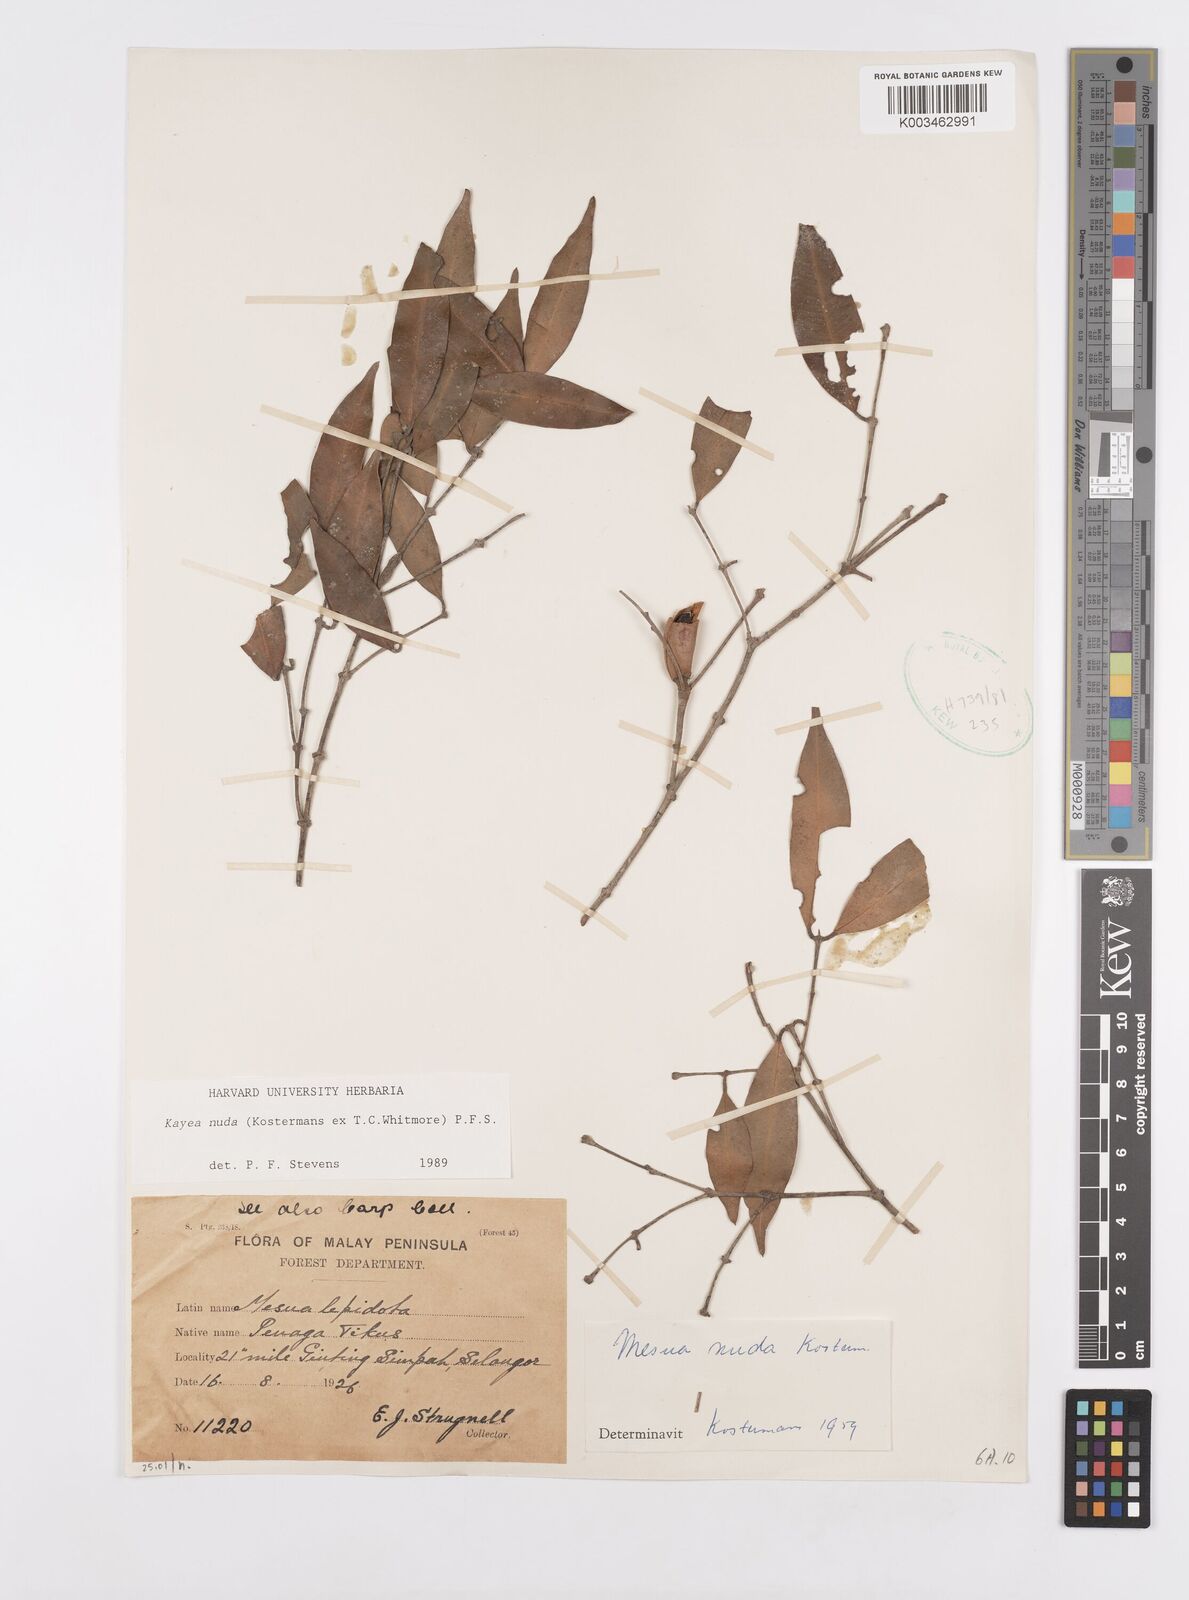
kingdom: Plantae
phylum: Tracheophyta
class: Magnoliopsida
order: Malpighiales
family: Calophyllaceae
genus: Kayea
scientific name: Kayea
